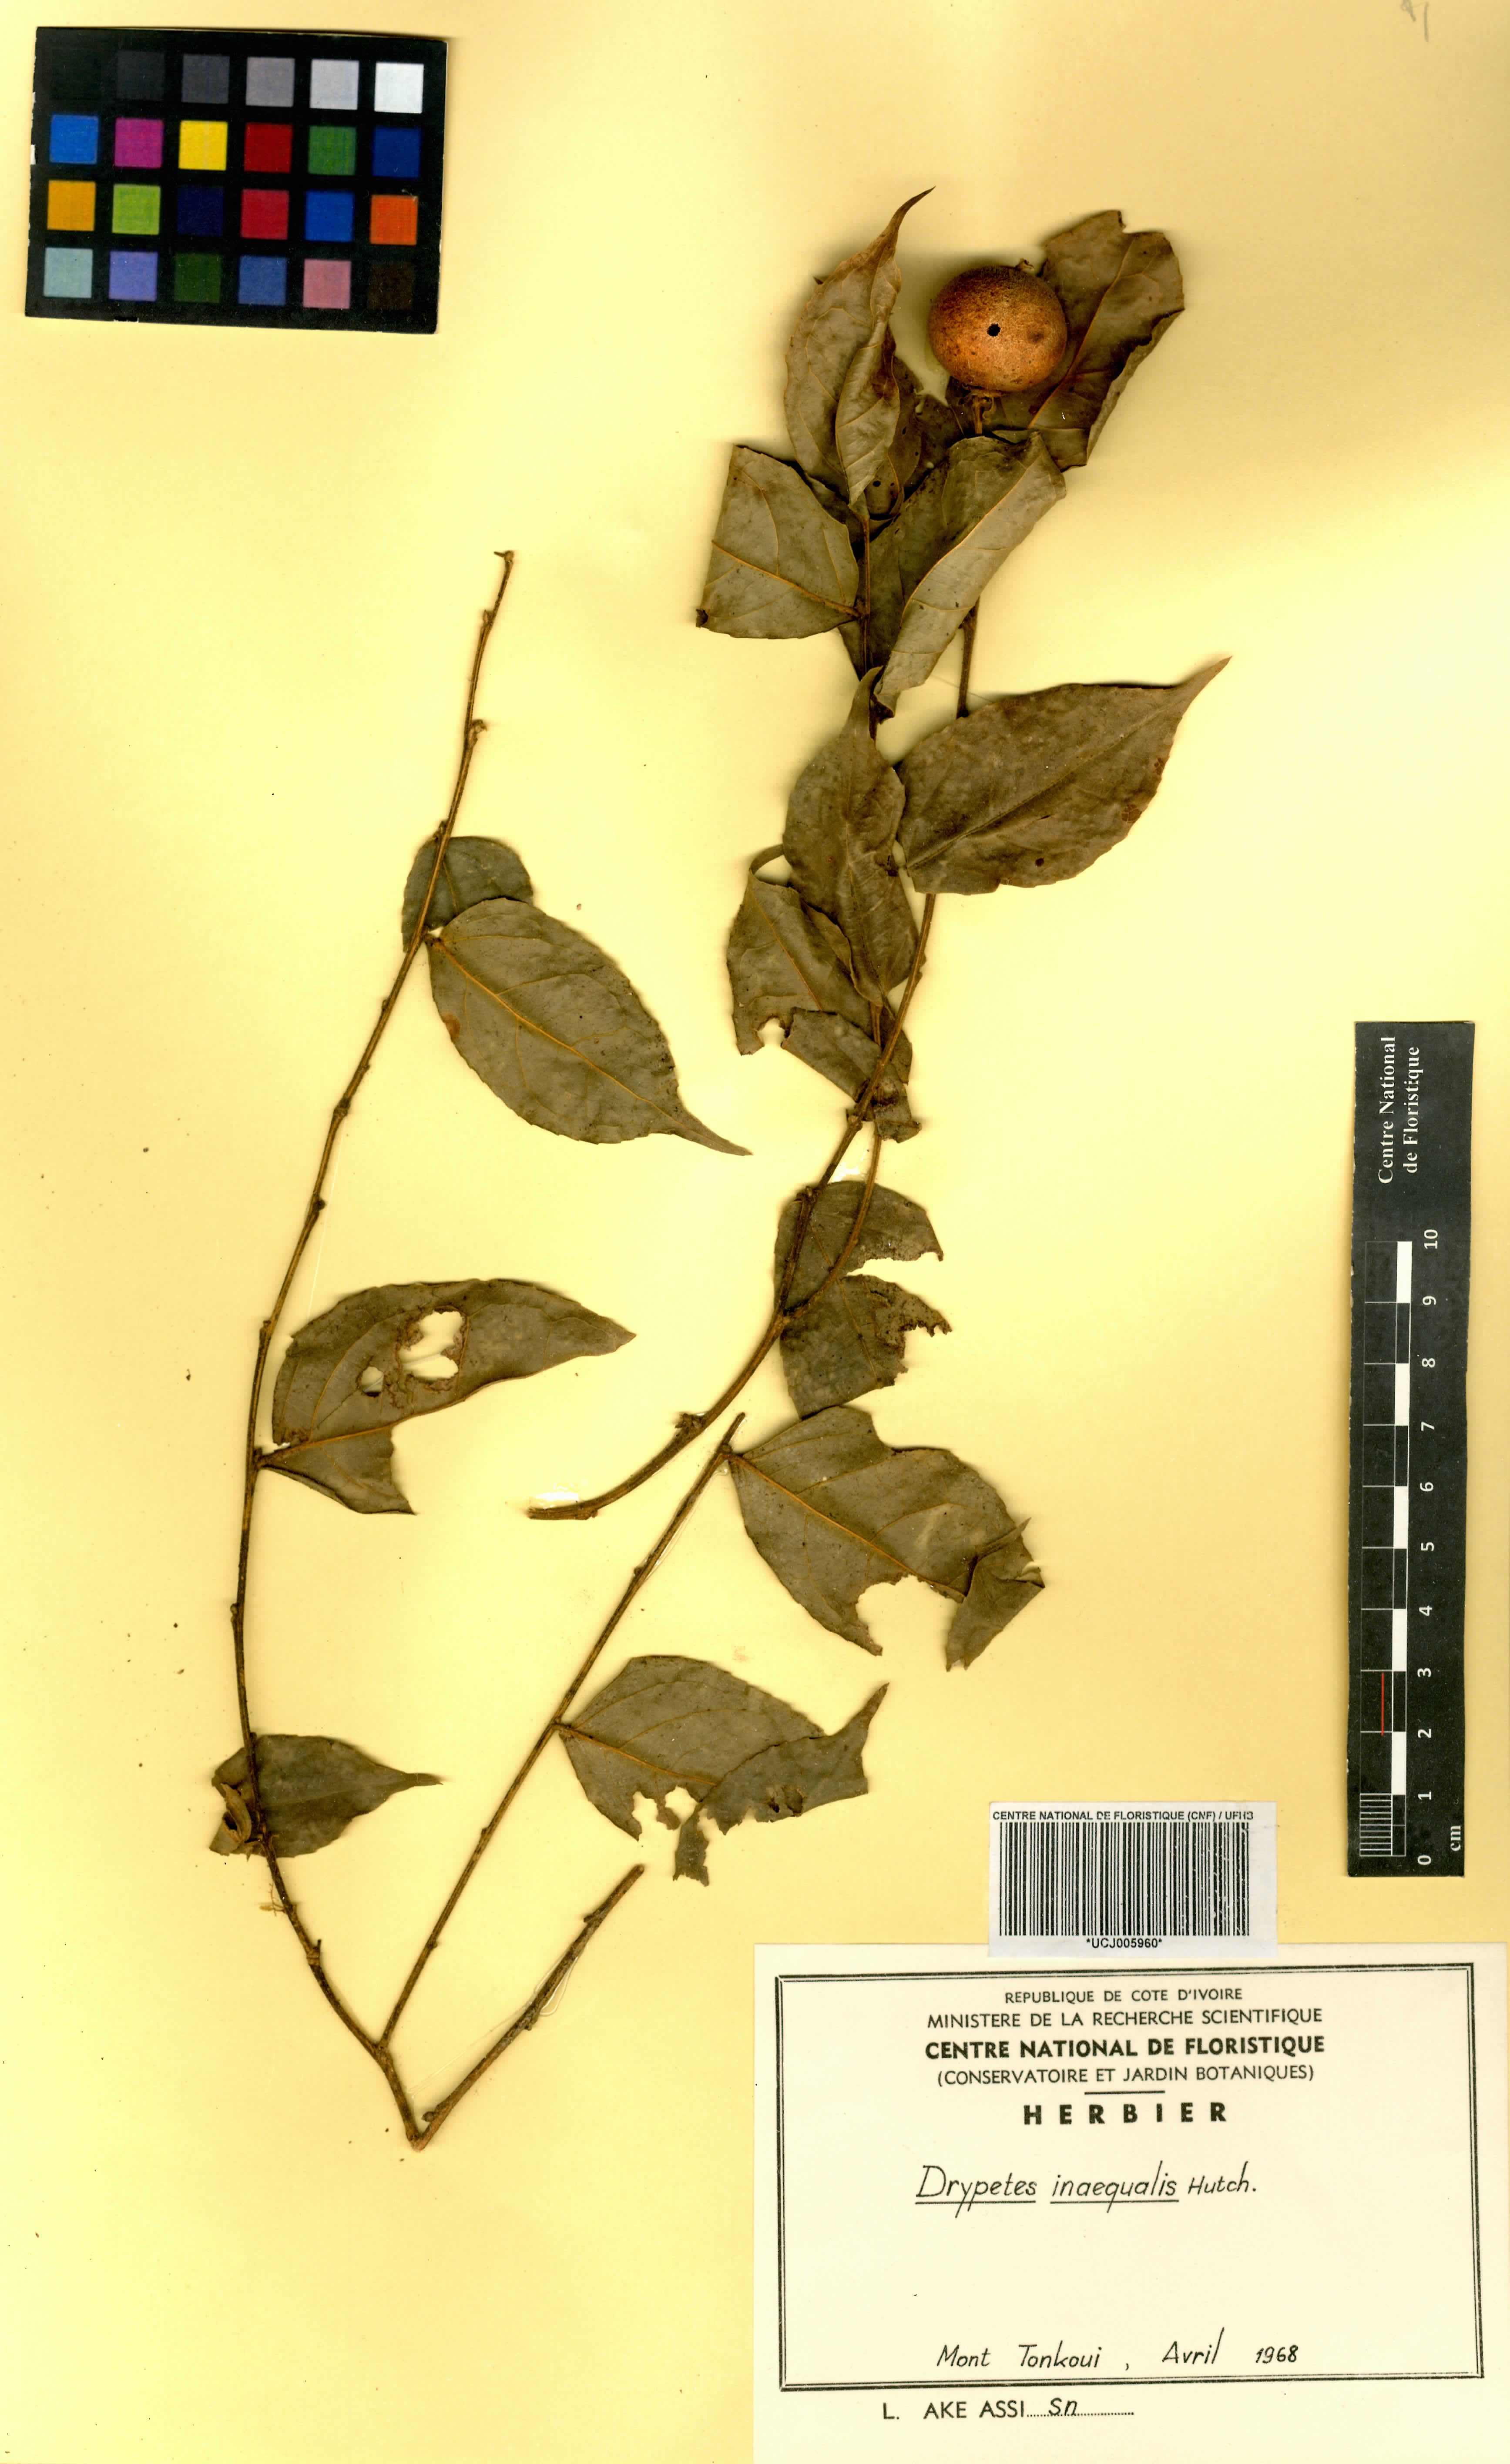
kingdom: Plantae
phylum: Tracheophyta
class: Magnoliopsida
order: Malpighiales
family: Putranjivaceae
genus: Drypetes
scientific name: Drypetes inaequalis
